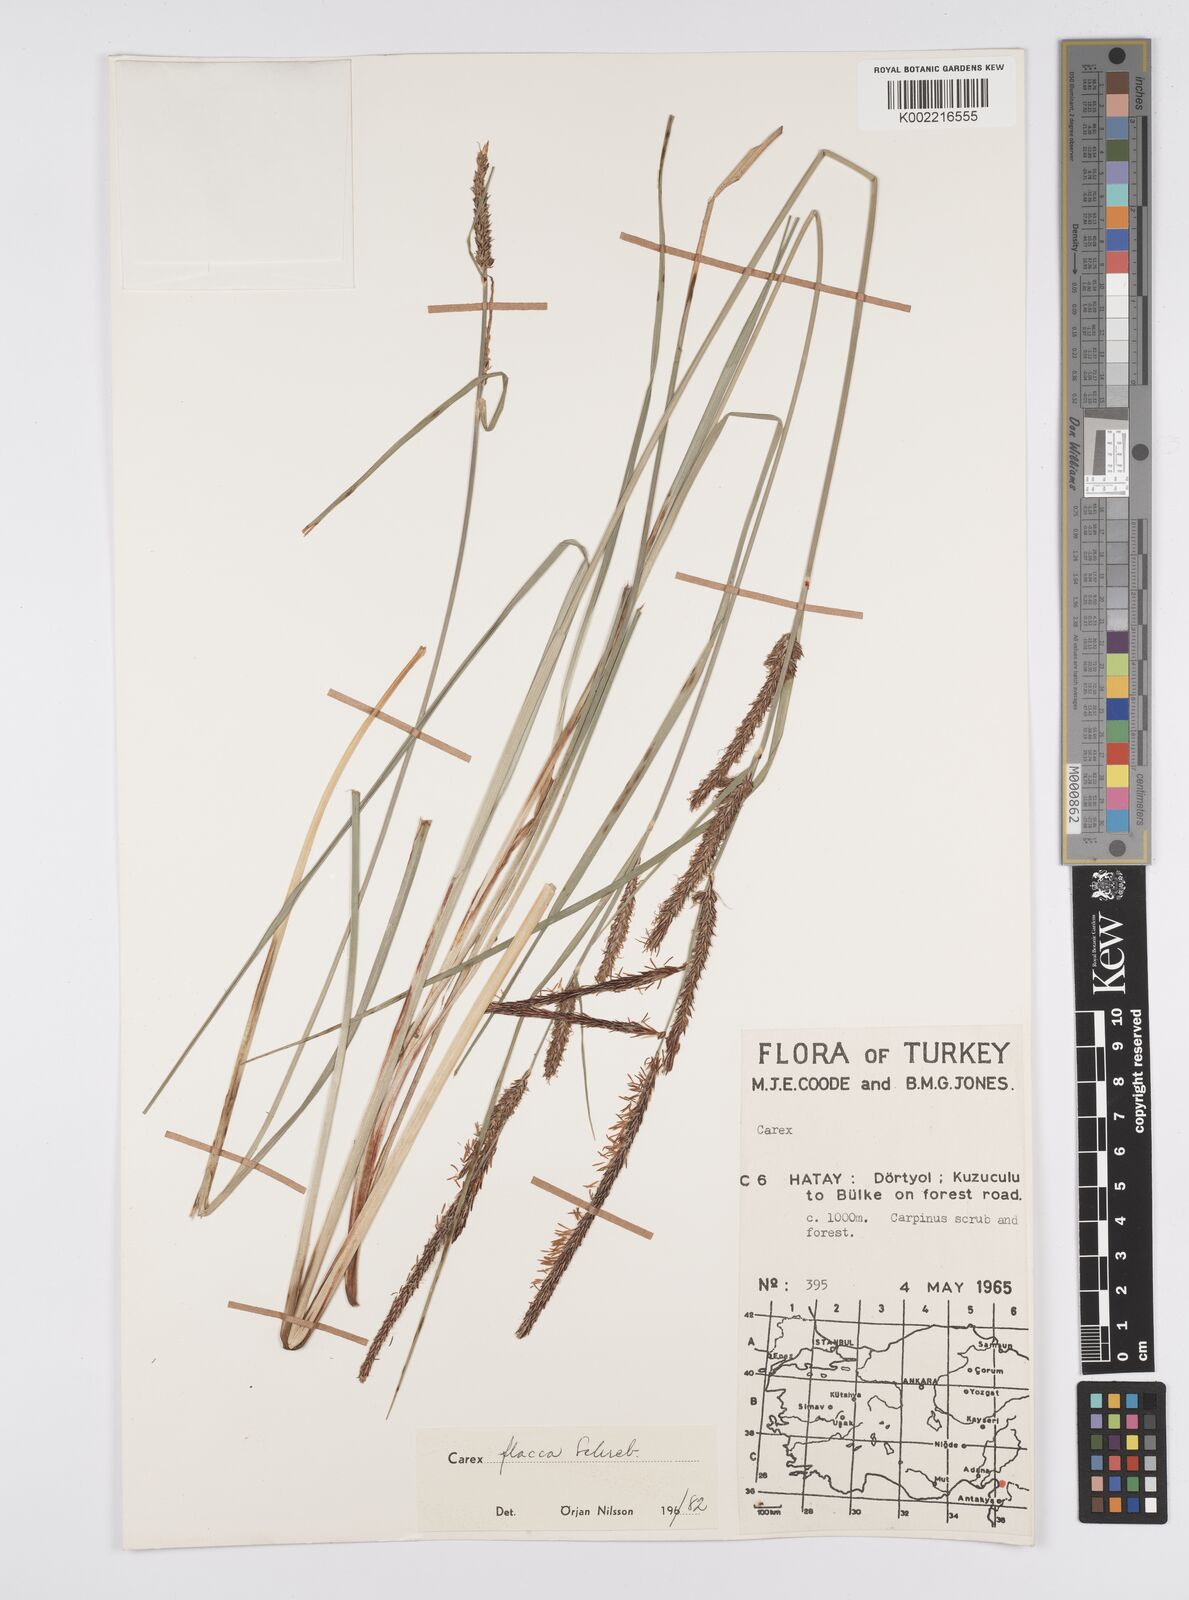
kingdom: Plantae
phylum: Tracheophyta
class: Liliopsida
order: Poales
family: Cyperaceae
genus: Carex
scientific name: Carex flacca
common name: Glaucous sedge
